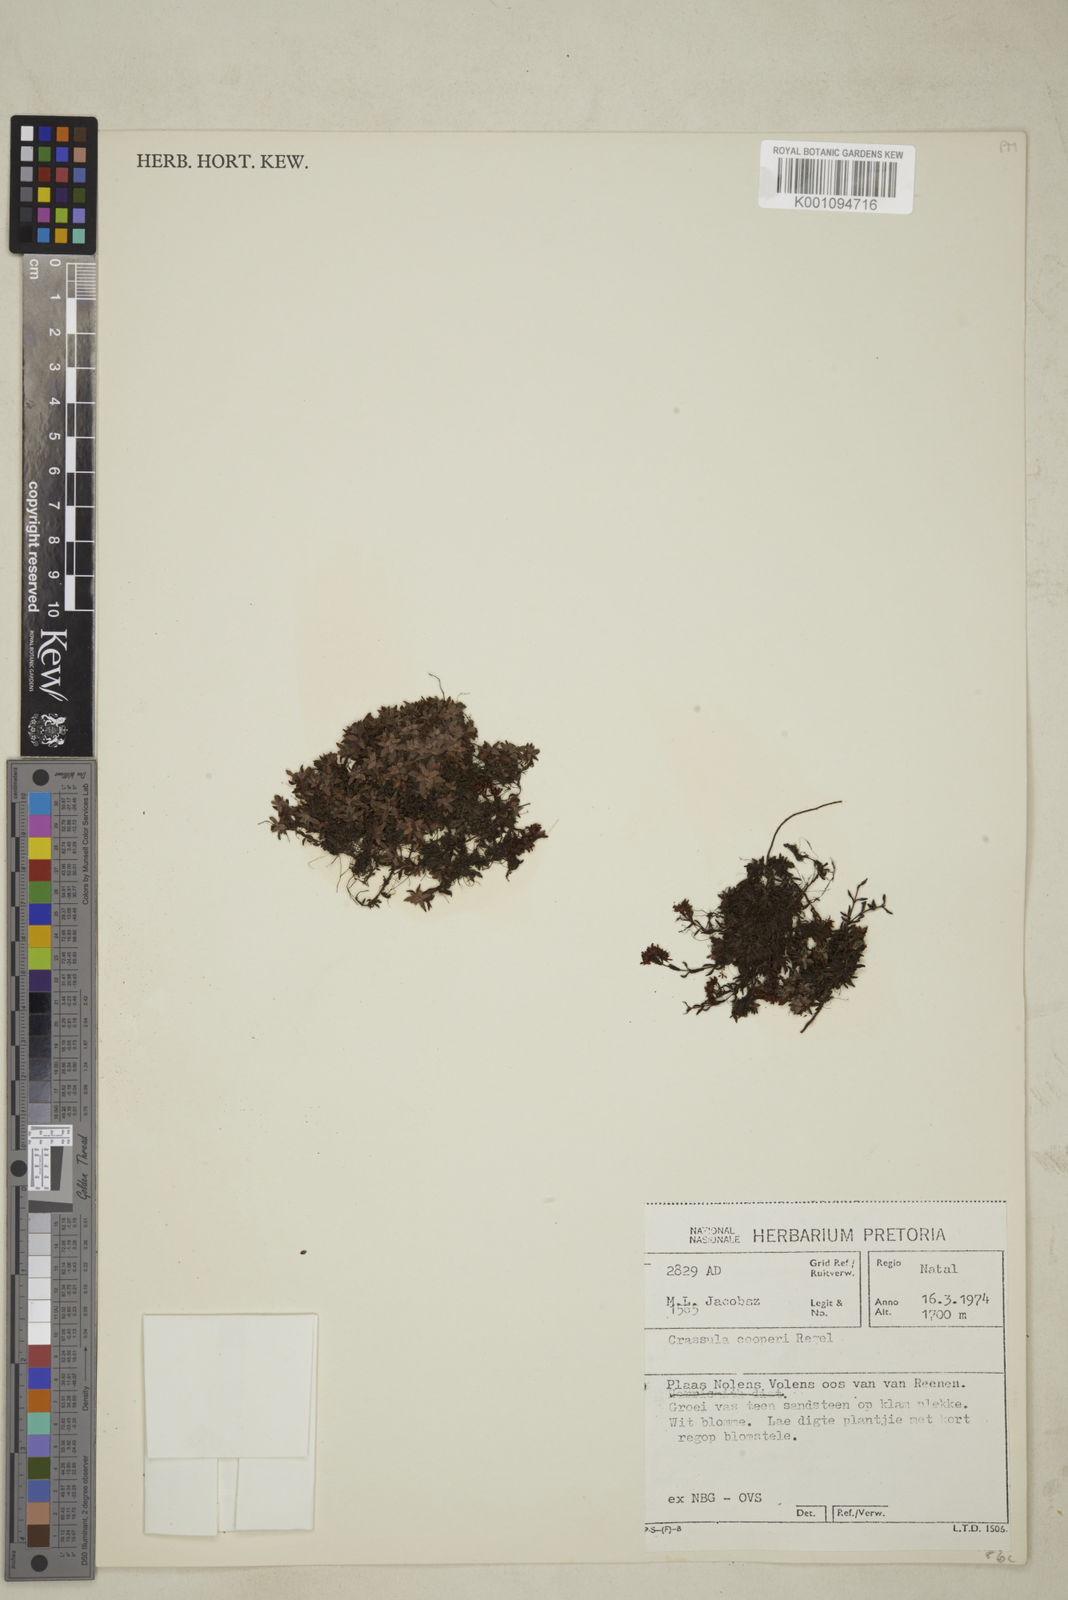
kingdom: Plantae
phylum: Tracheophyta
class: Magnoliopsida
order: Saxifragales
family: Crassulaceae
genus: Crassula
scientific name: Crassula exilis
